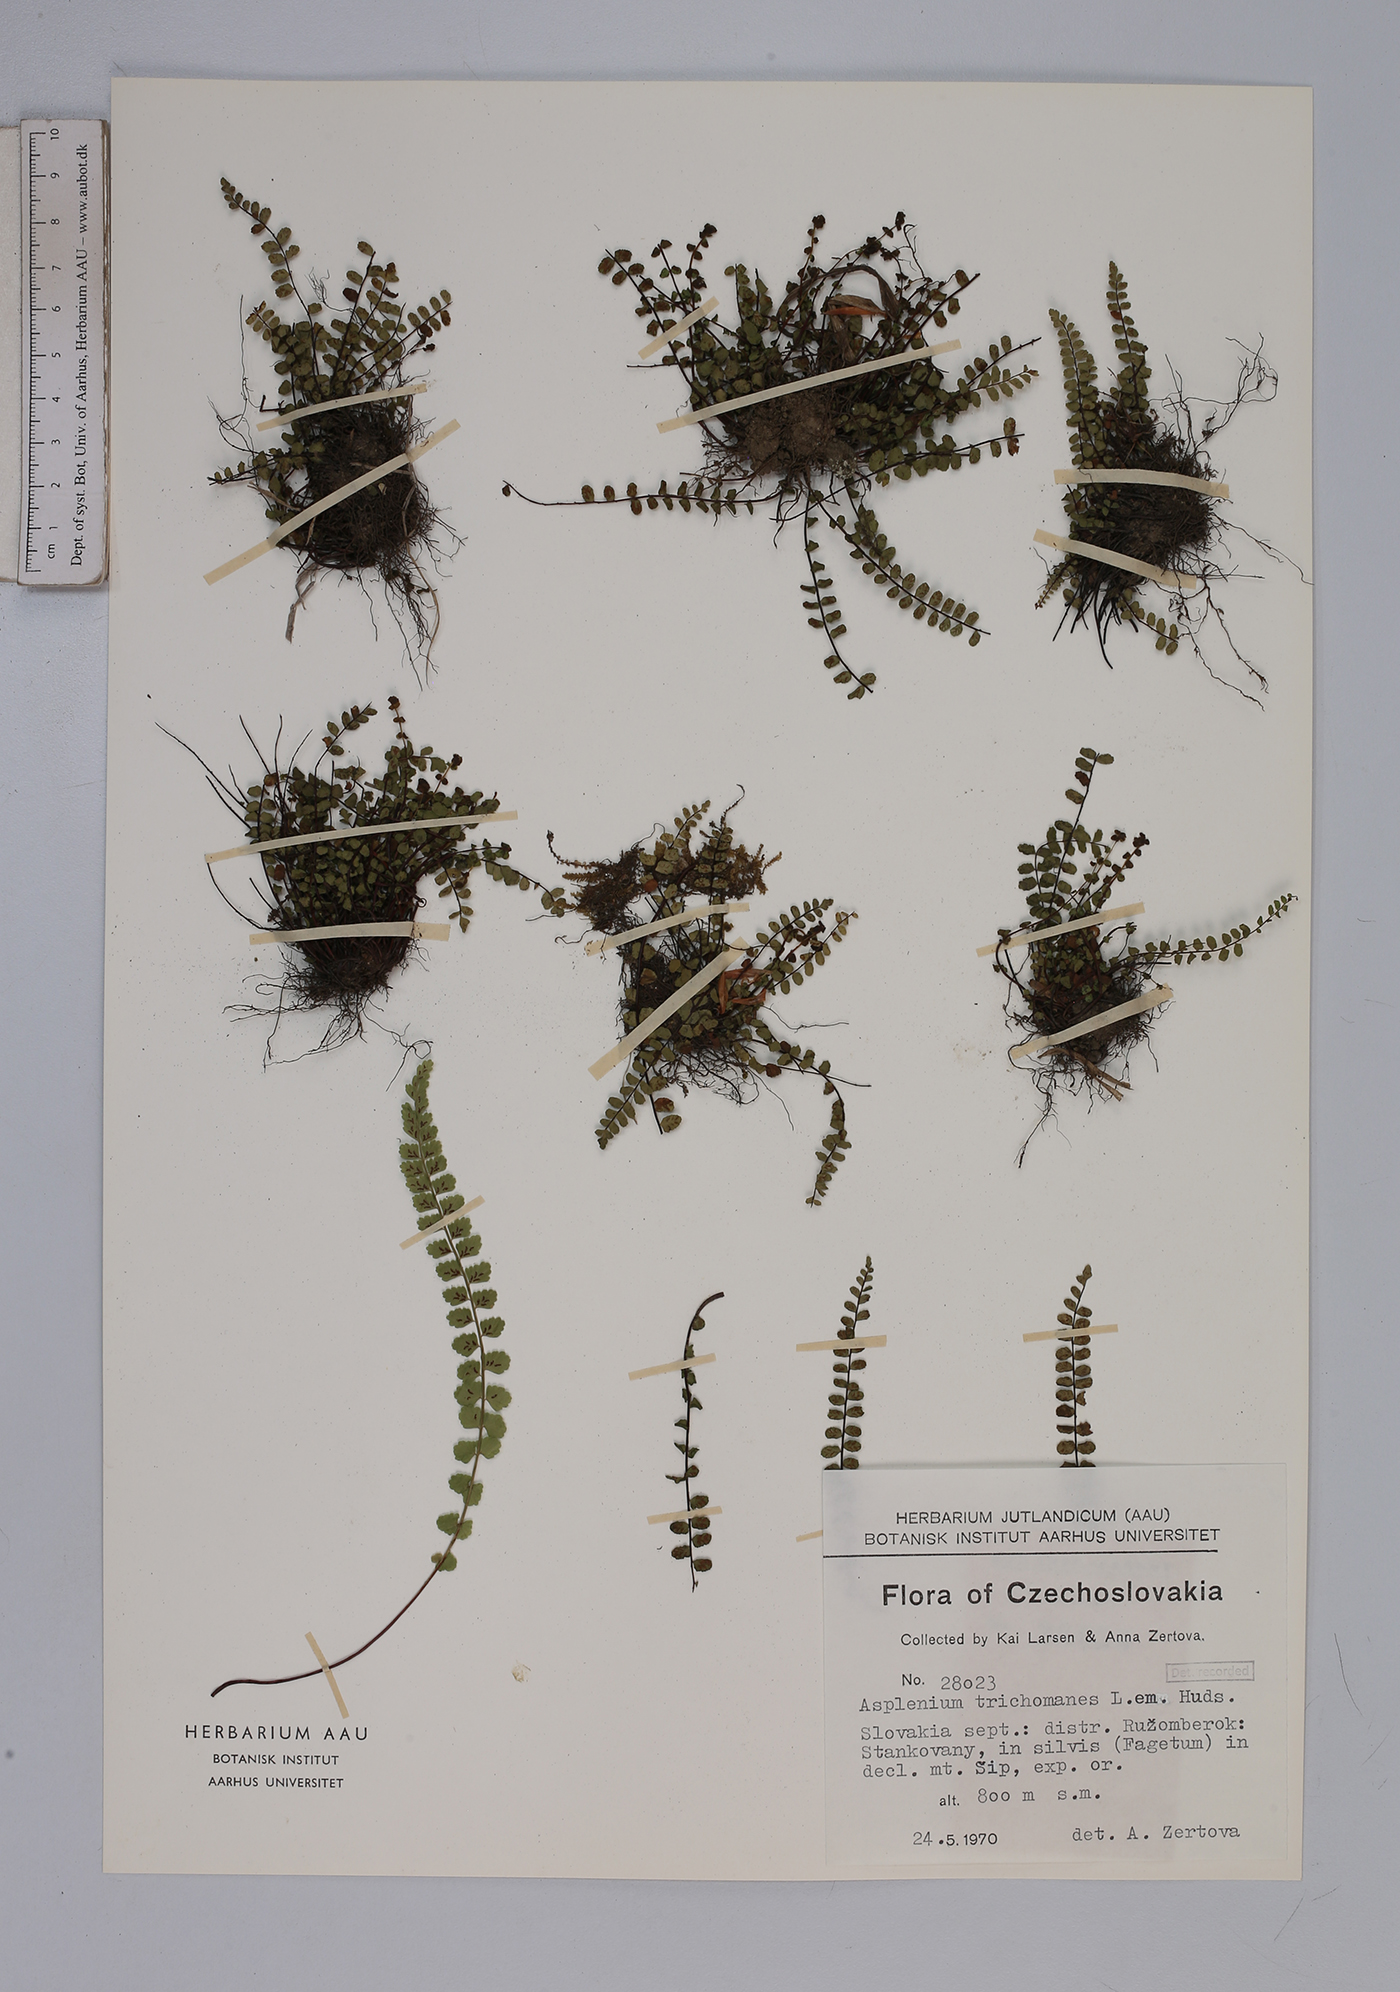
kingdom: Plantae
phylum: Tracheophyta
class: Polypodiopsida
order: Polypodiales
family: Aspleniaceae
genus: Asplenium
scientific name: Asplenium trichomanes
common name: Maidenhair spleenwort
